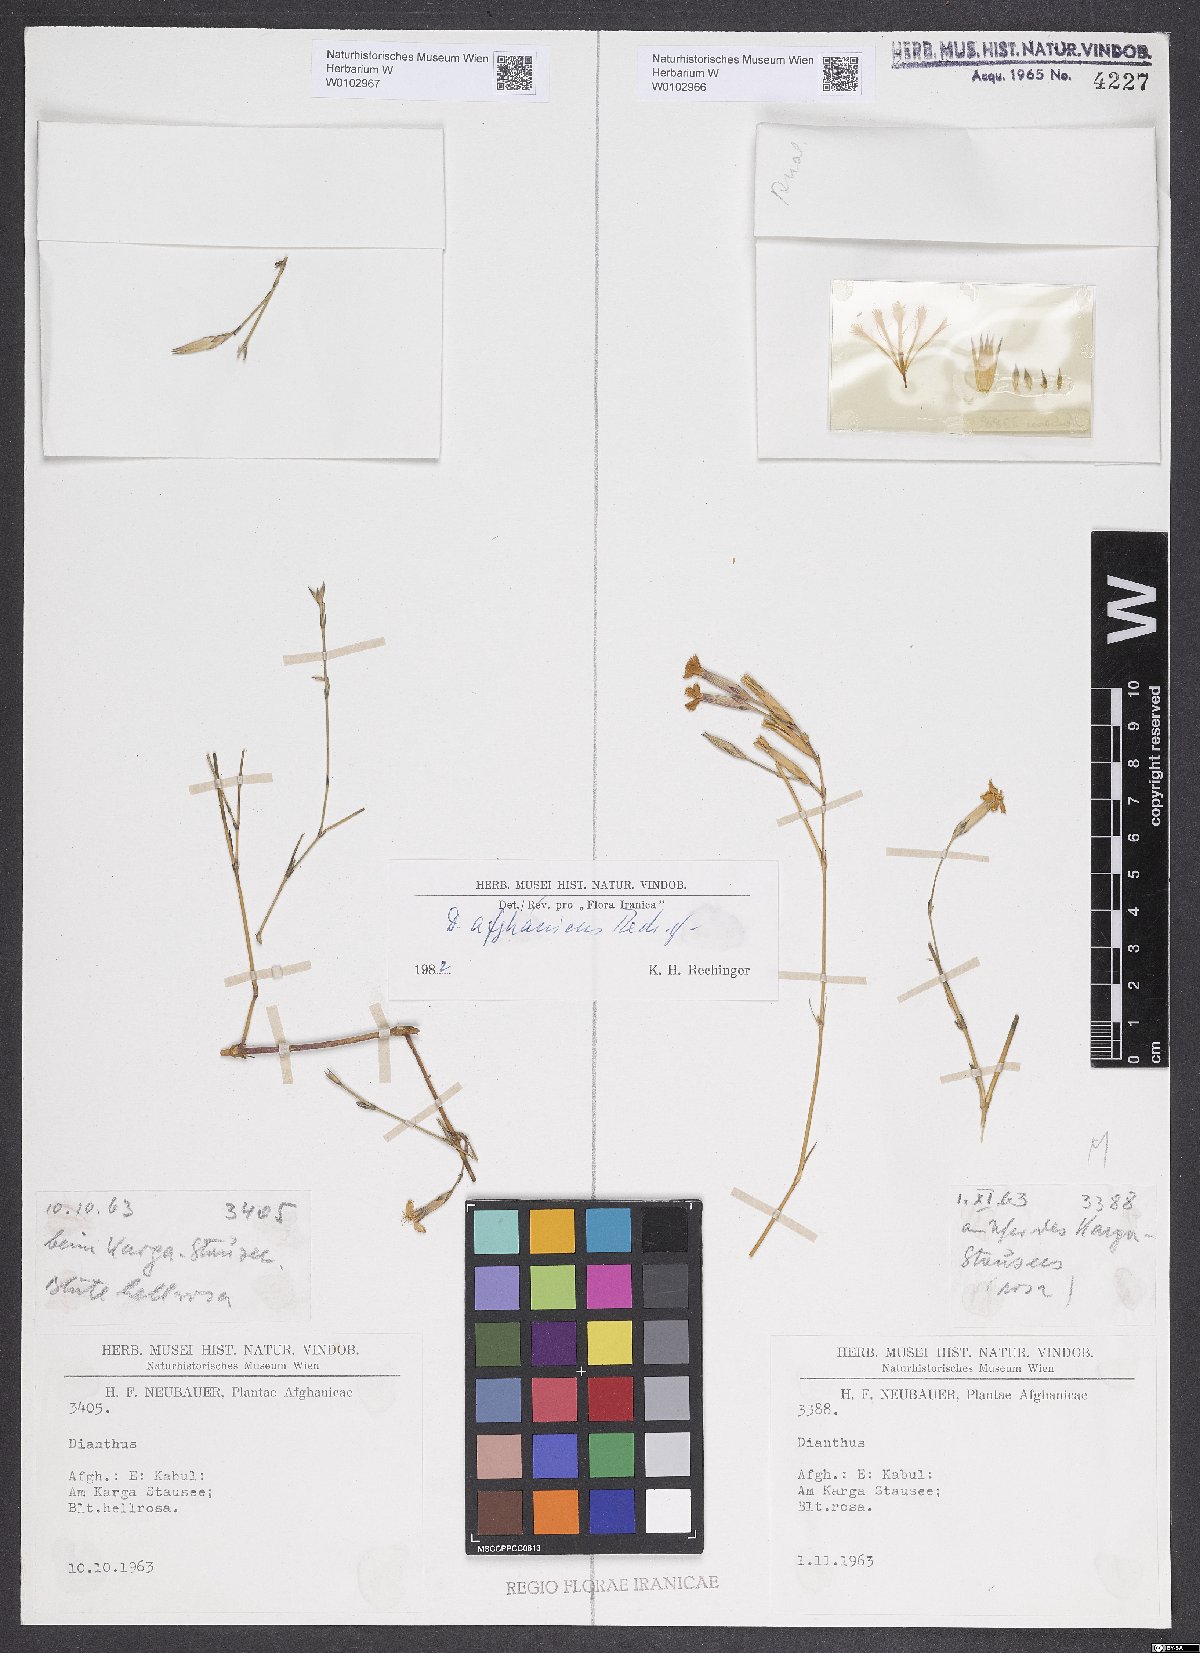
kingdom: Plantae
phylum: Tracheophyta
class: Magnoliopsida
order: Caryophyllales
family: Caryophyllaceae
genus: Dianthus
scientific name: Dianthus afghanicus
